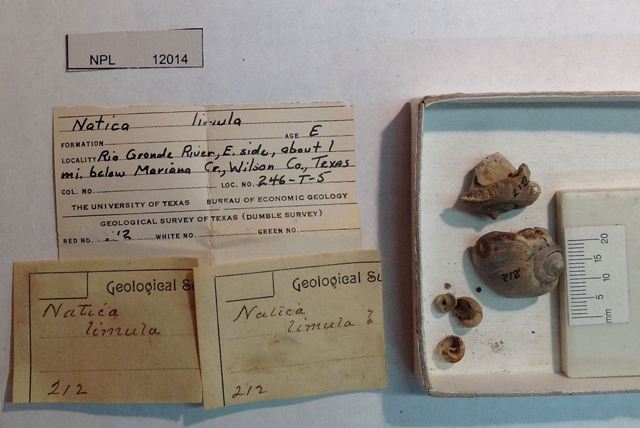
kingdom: Animalia
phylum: Mollusca
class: Gastropoda
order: Littorinimorpha
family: Naticidae
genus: Neverita
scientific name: Neverita Natica limula
